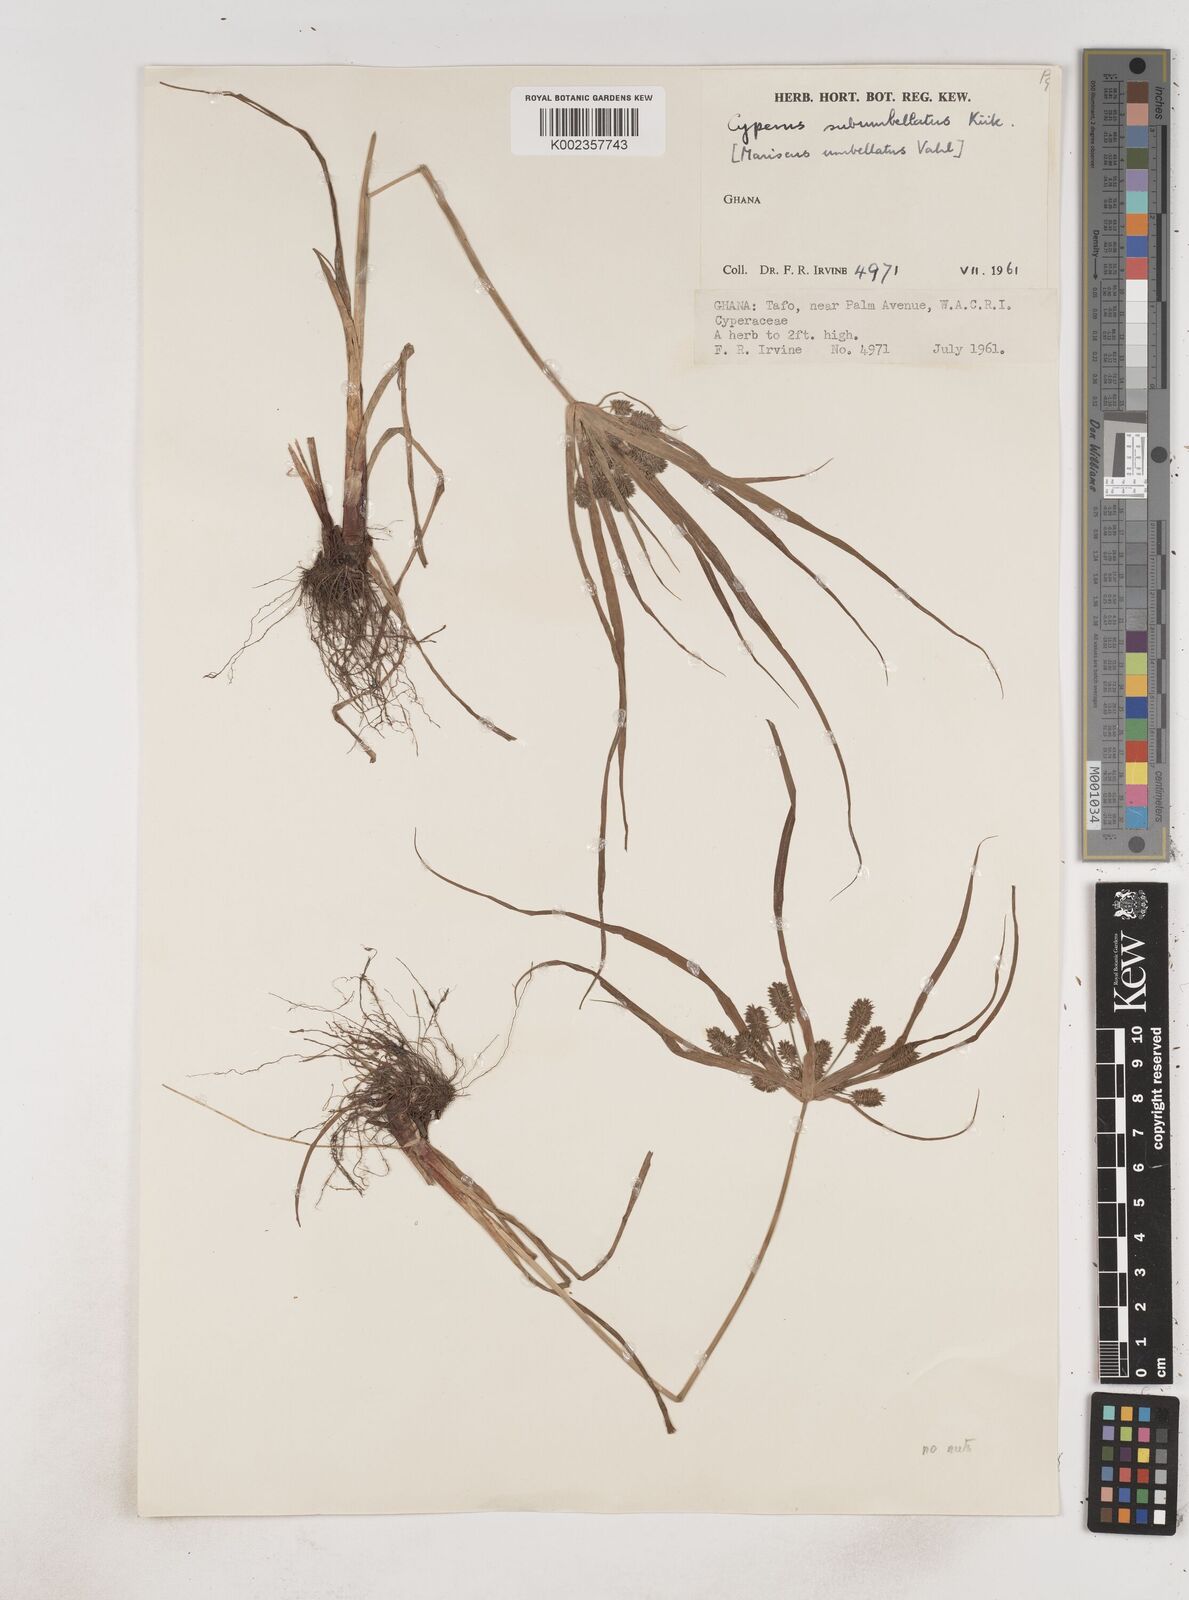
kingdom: Plantae
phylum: Tracheophyta
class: Liliopsida
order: Poales
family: Cyperaceae
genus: Cyperus
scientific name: Cyperus sublimis
